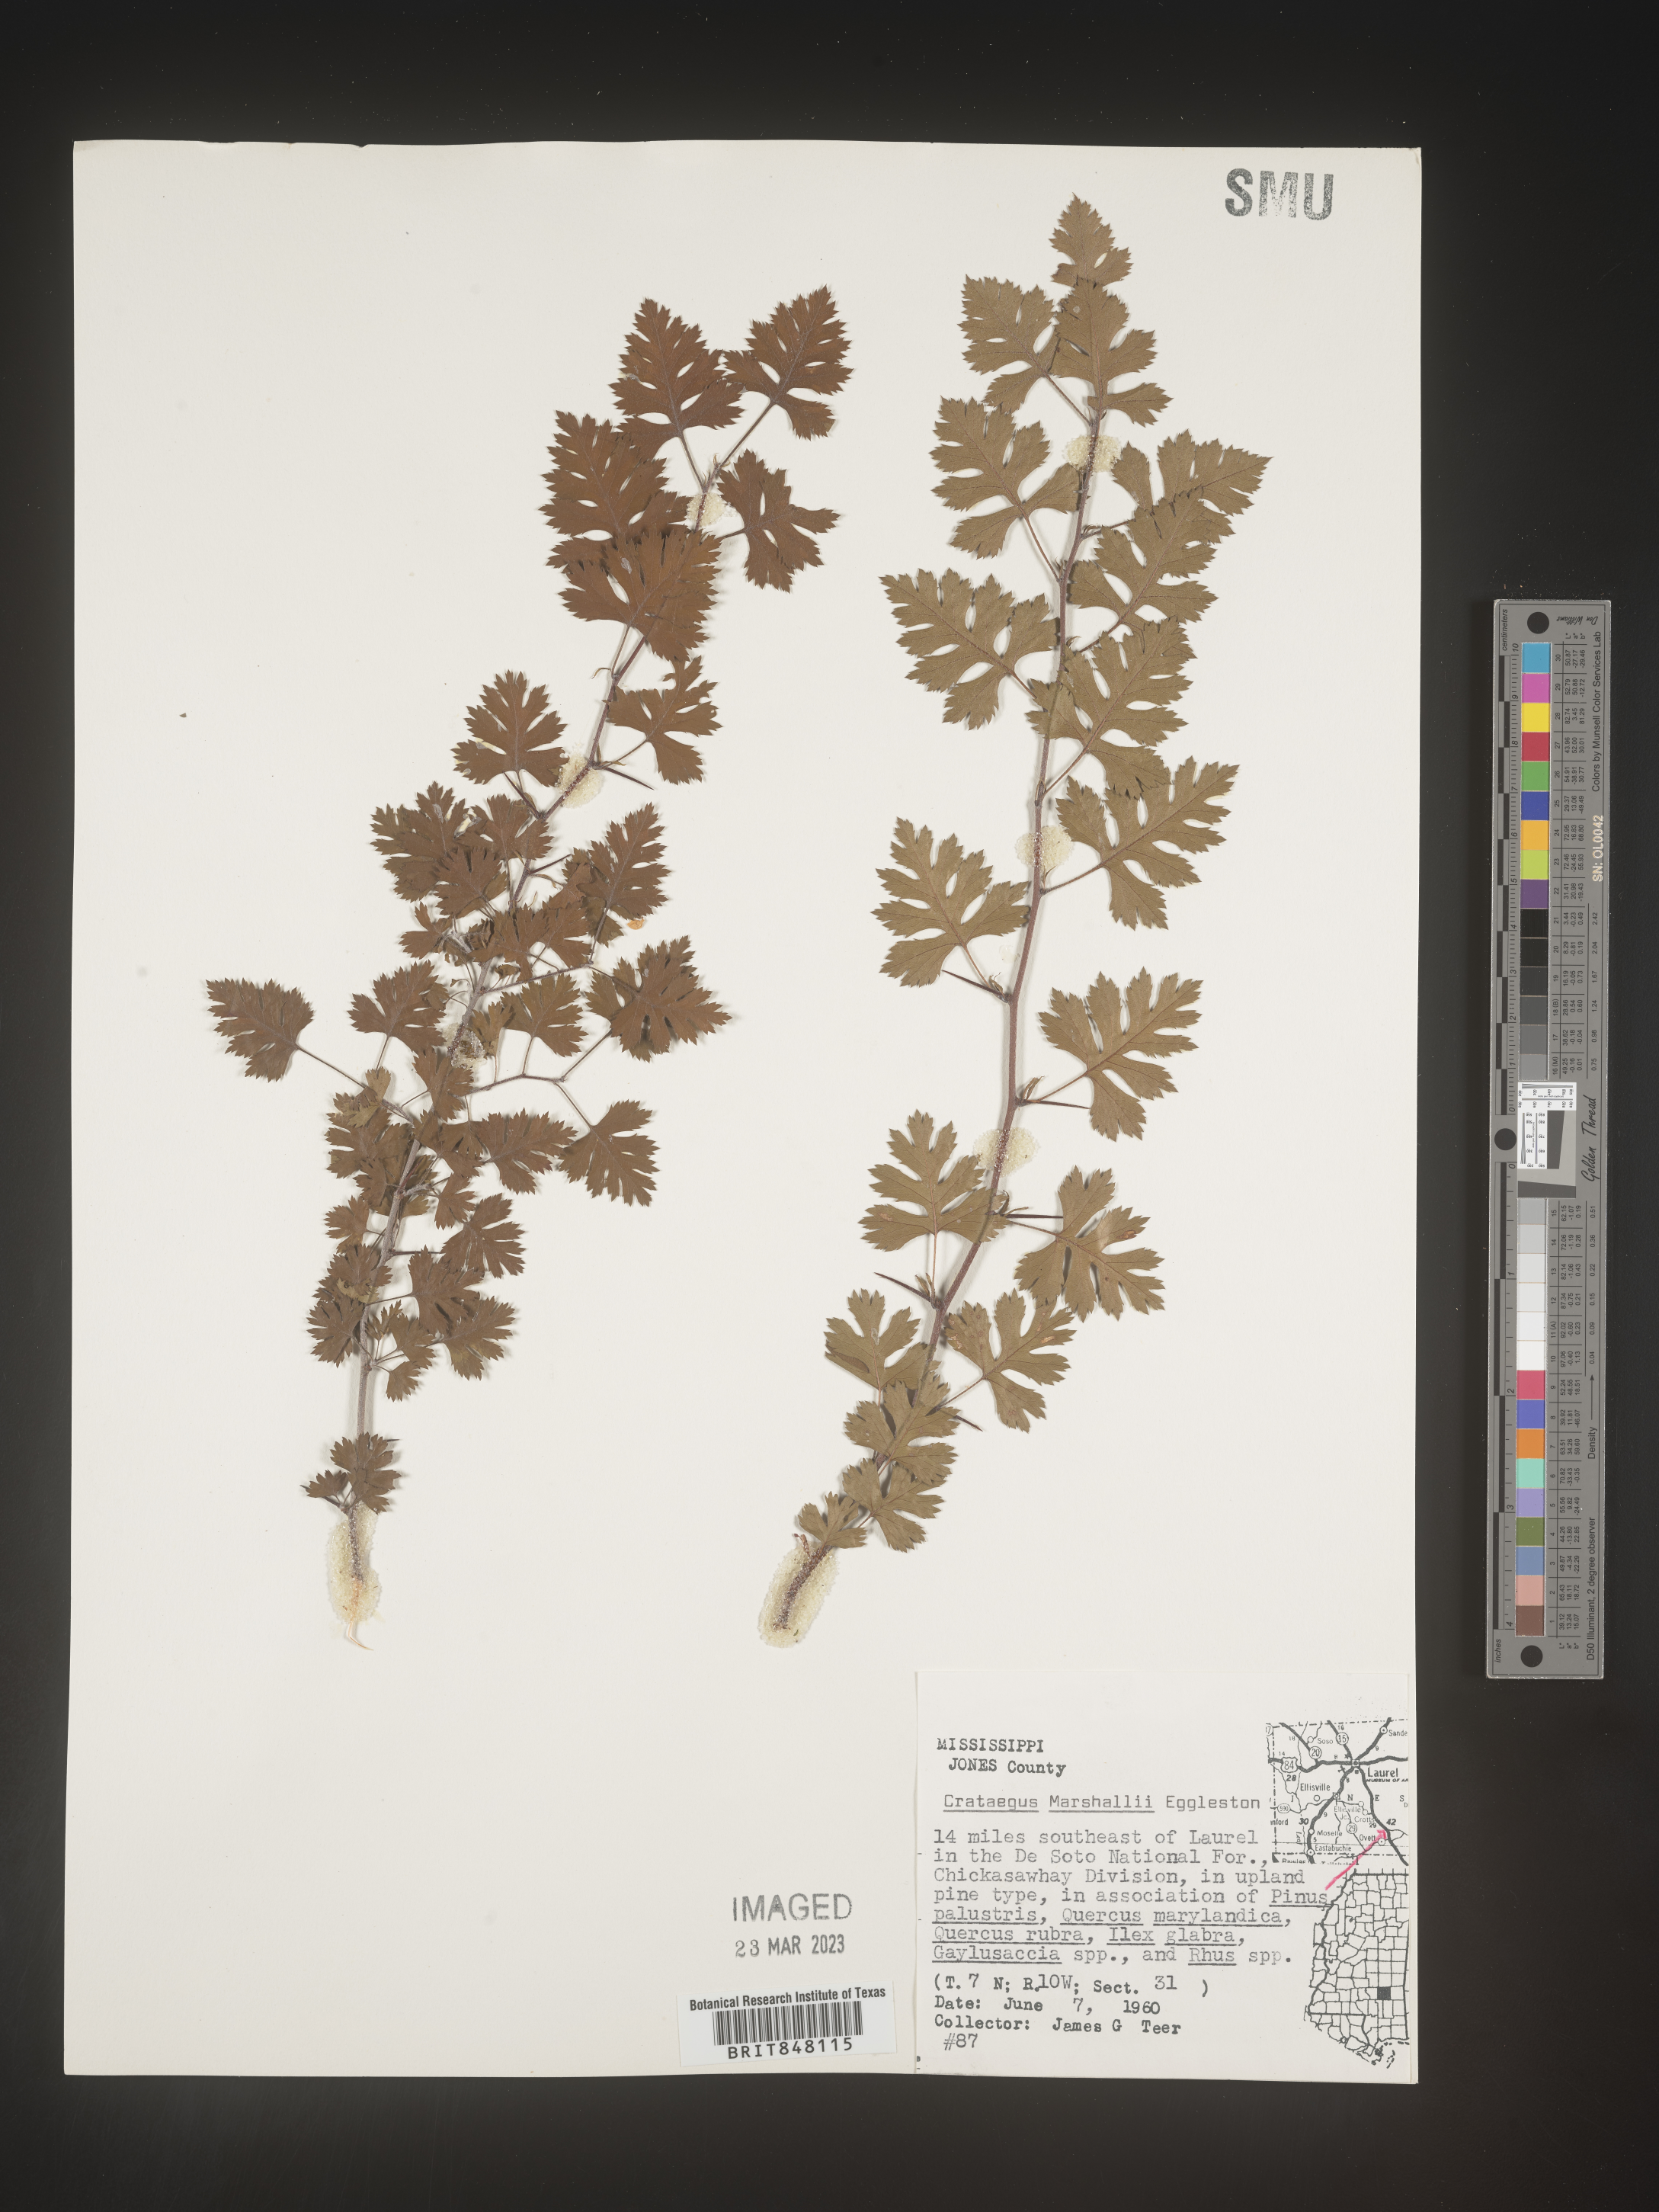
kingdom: Plantae
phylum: Tracheophyta
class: Magnoliopsida
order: Rosales
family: Rosaceae
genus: Crataegus
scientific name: Crataegus marshallii
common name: Parsley-hawthorn
